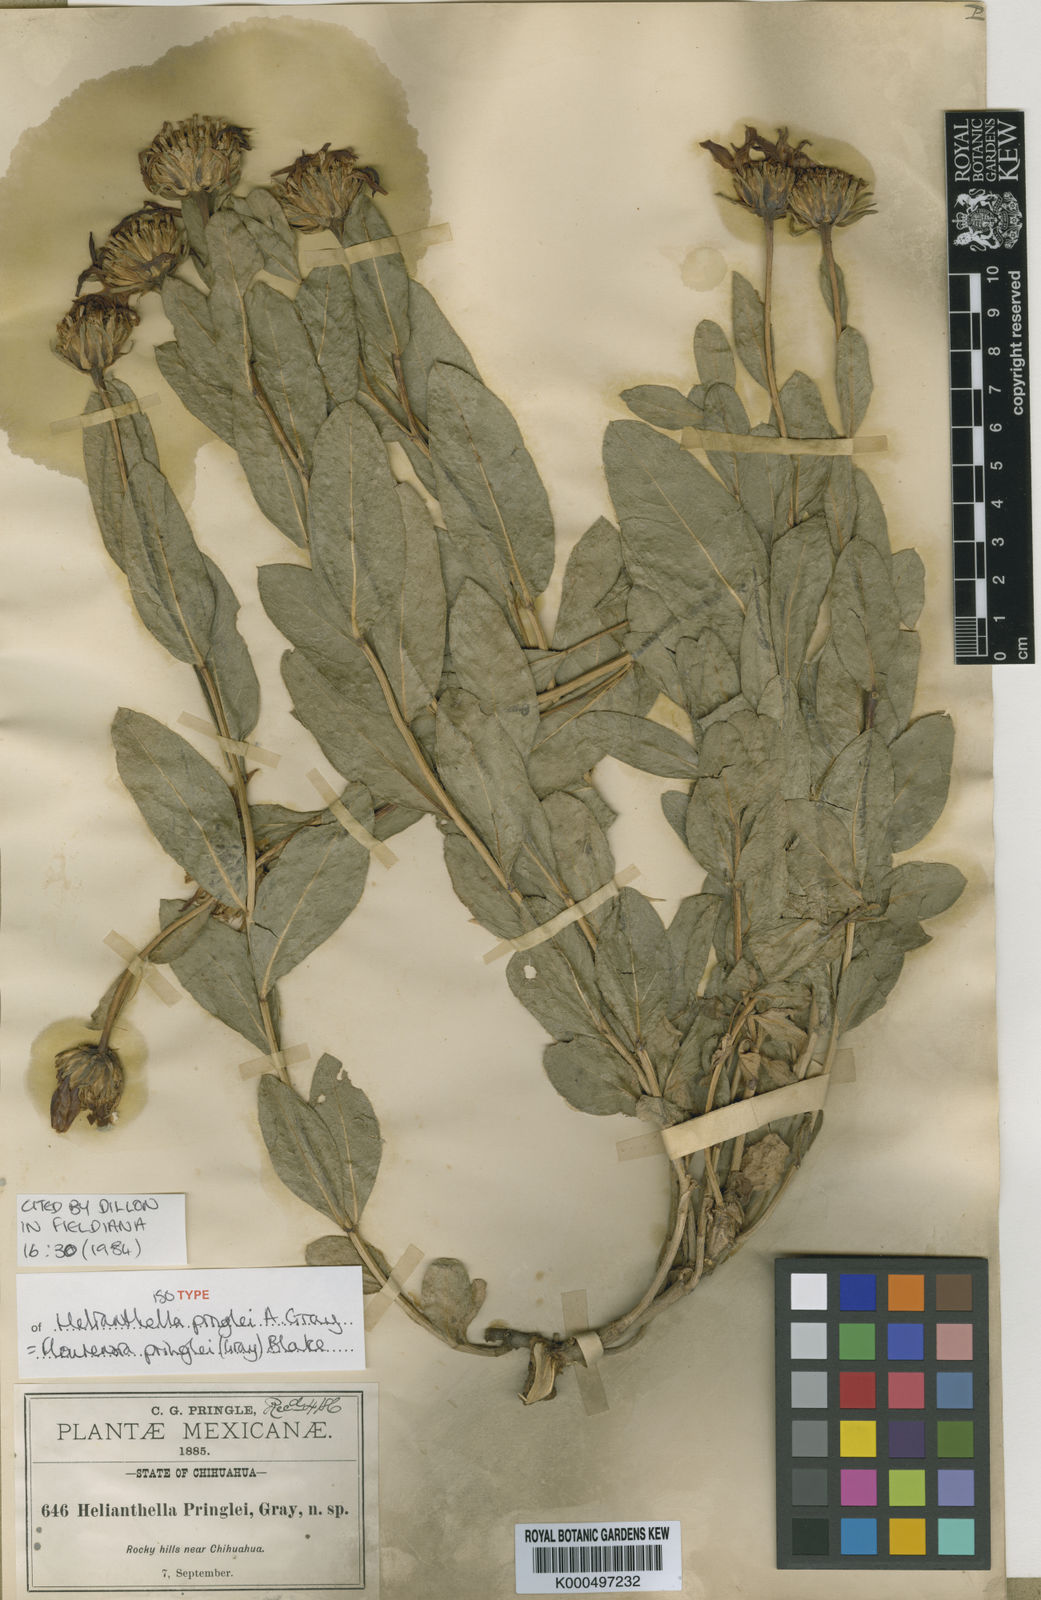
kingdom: Plantae
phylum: Tracheophyta
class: Magnoliopsida
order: Asterales
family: Asteraceae
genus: Flourensia
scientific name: Flourensia pringlei
